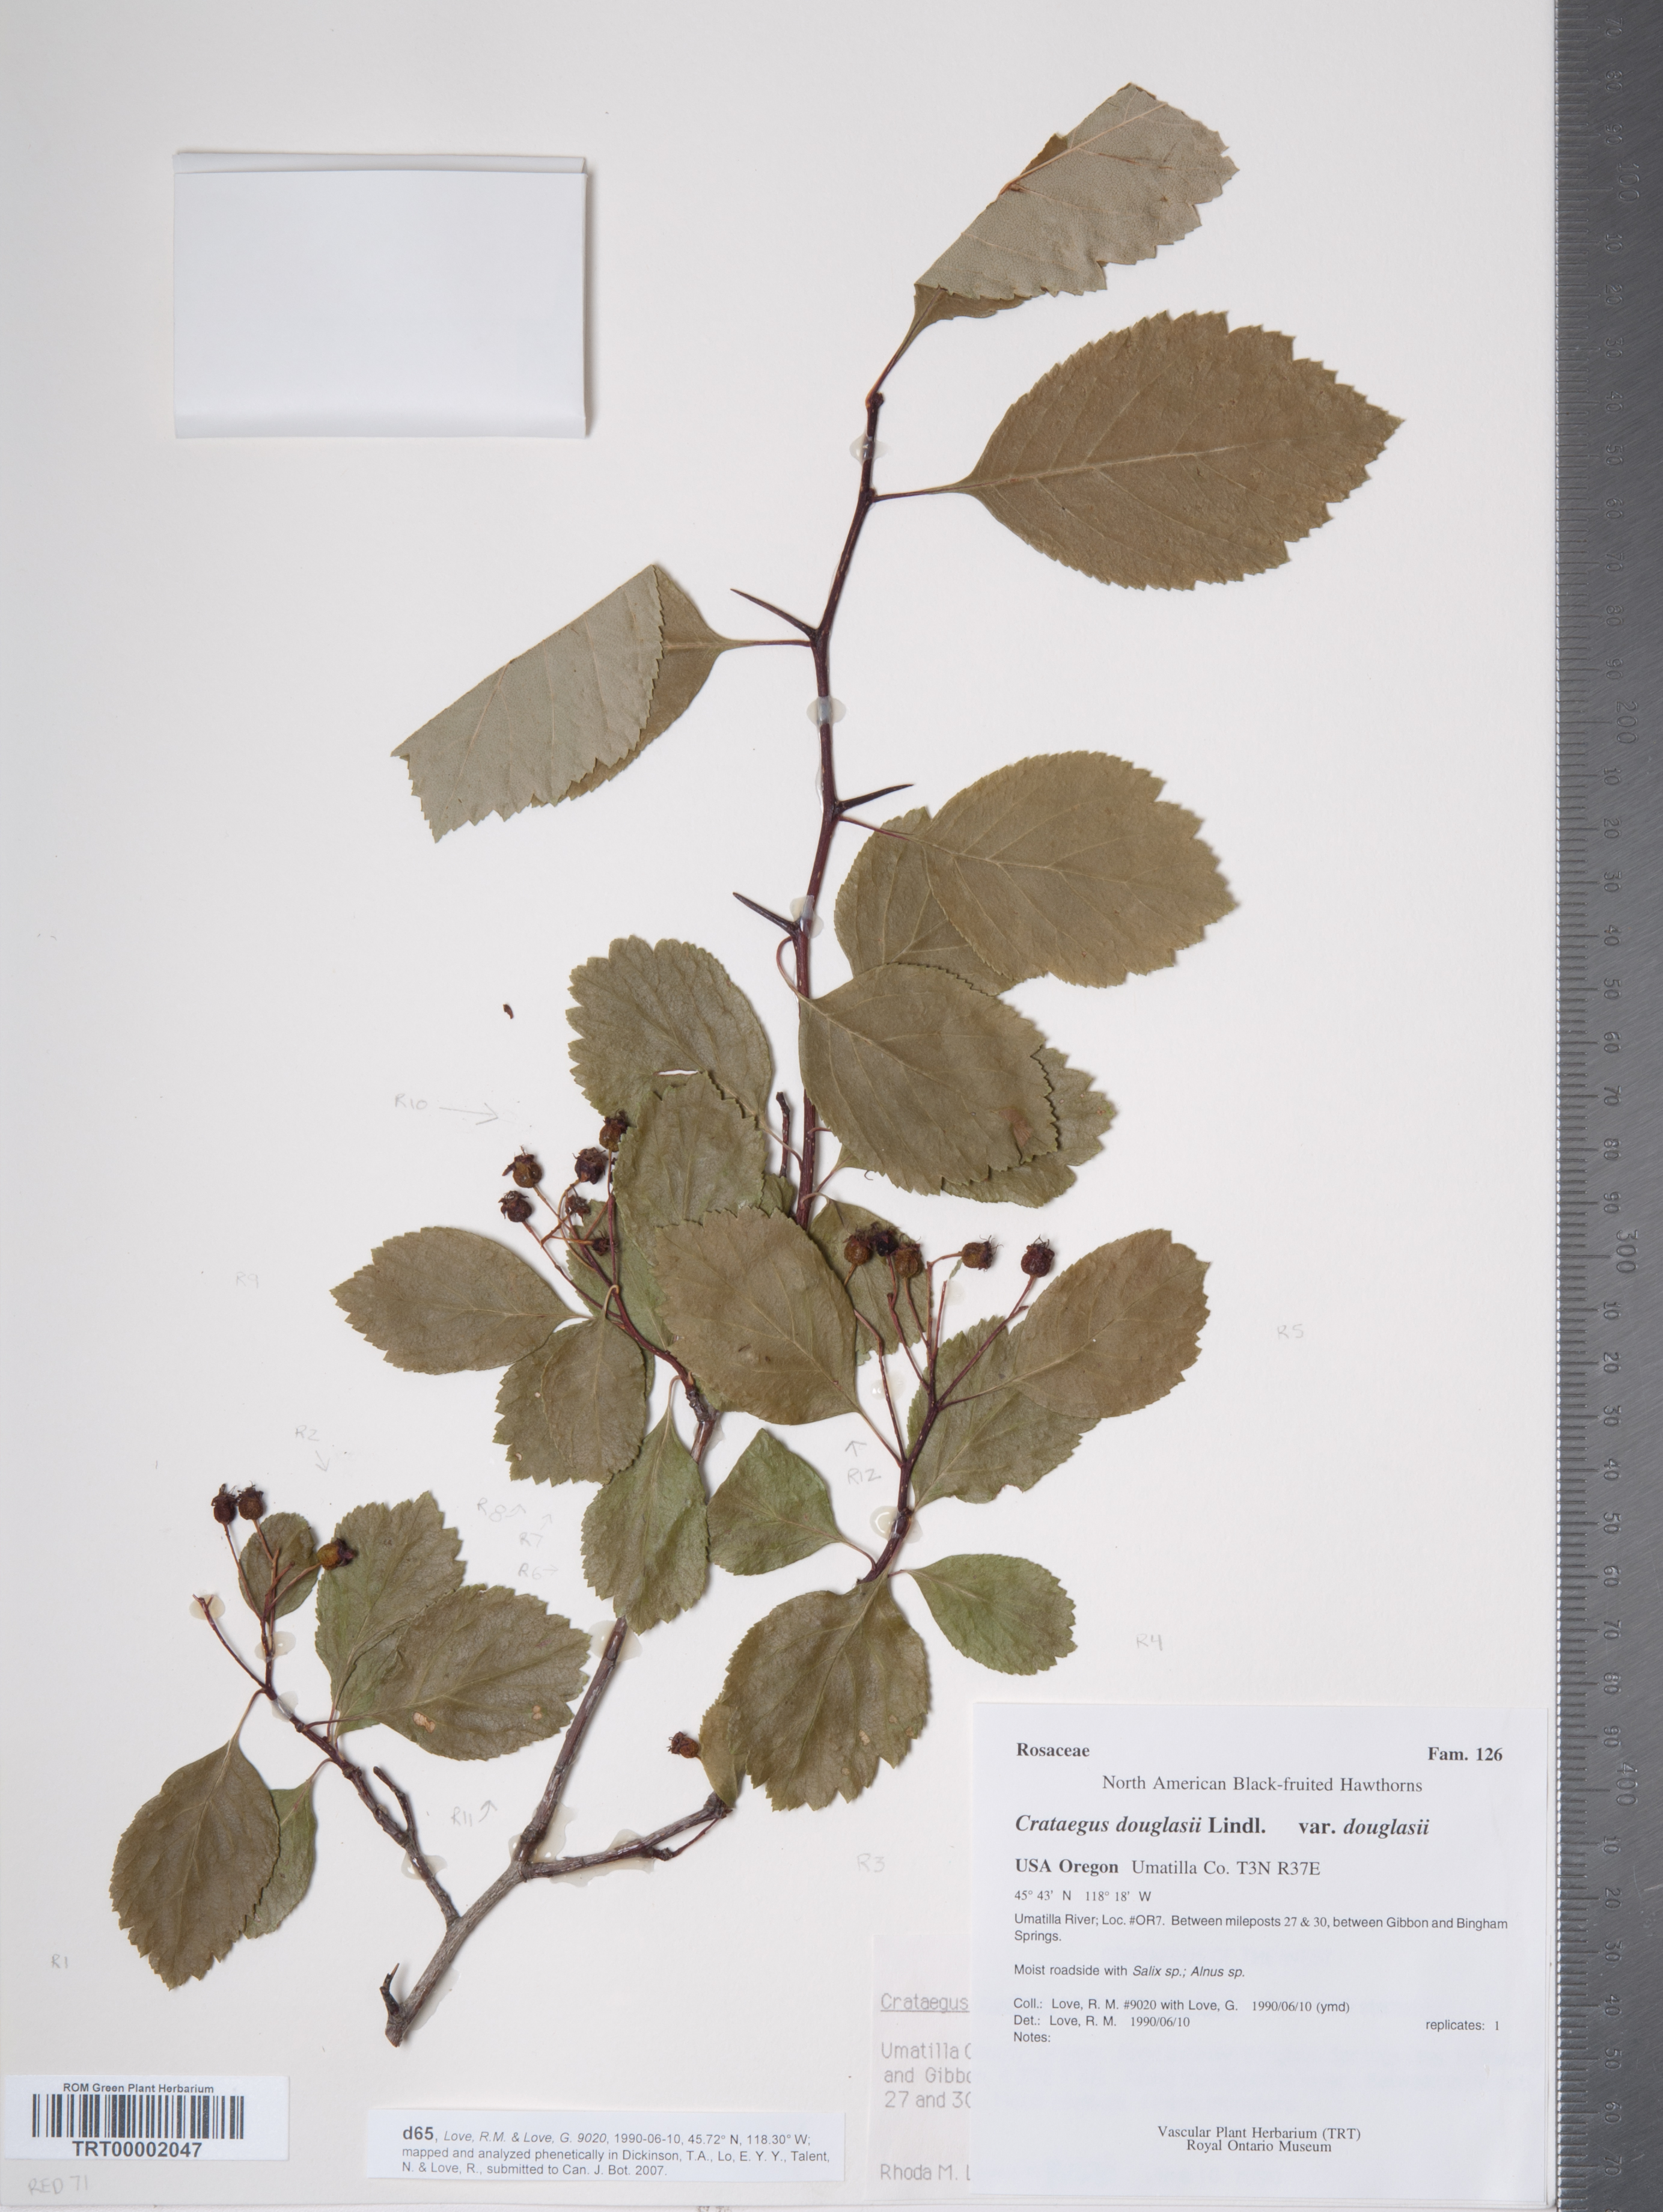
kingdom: Plantae
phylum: Tracheophyta
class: Magnoliopsida
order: Rosales
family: Rosaceae
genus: Crataegus
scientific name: Crataegus douglasii
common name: Black hawthorn
